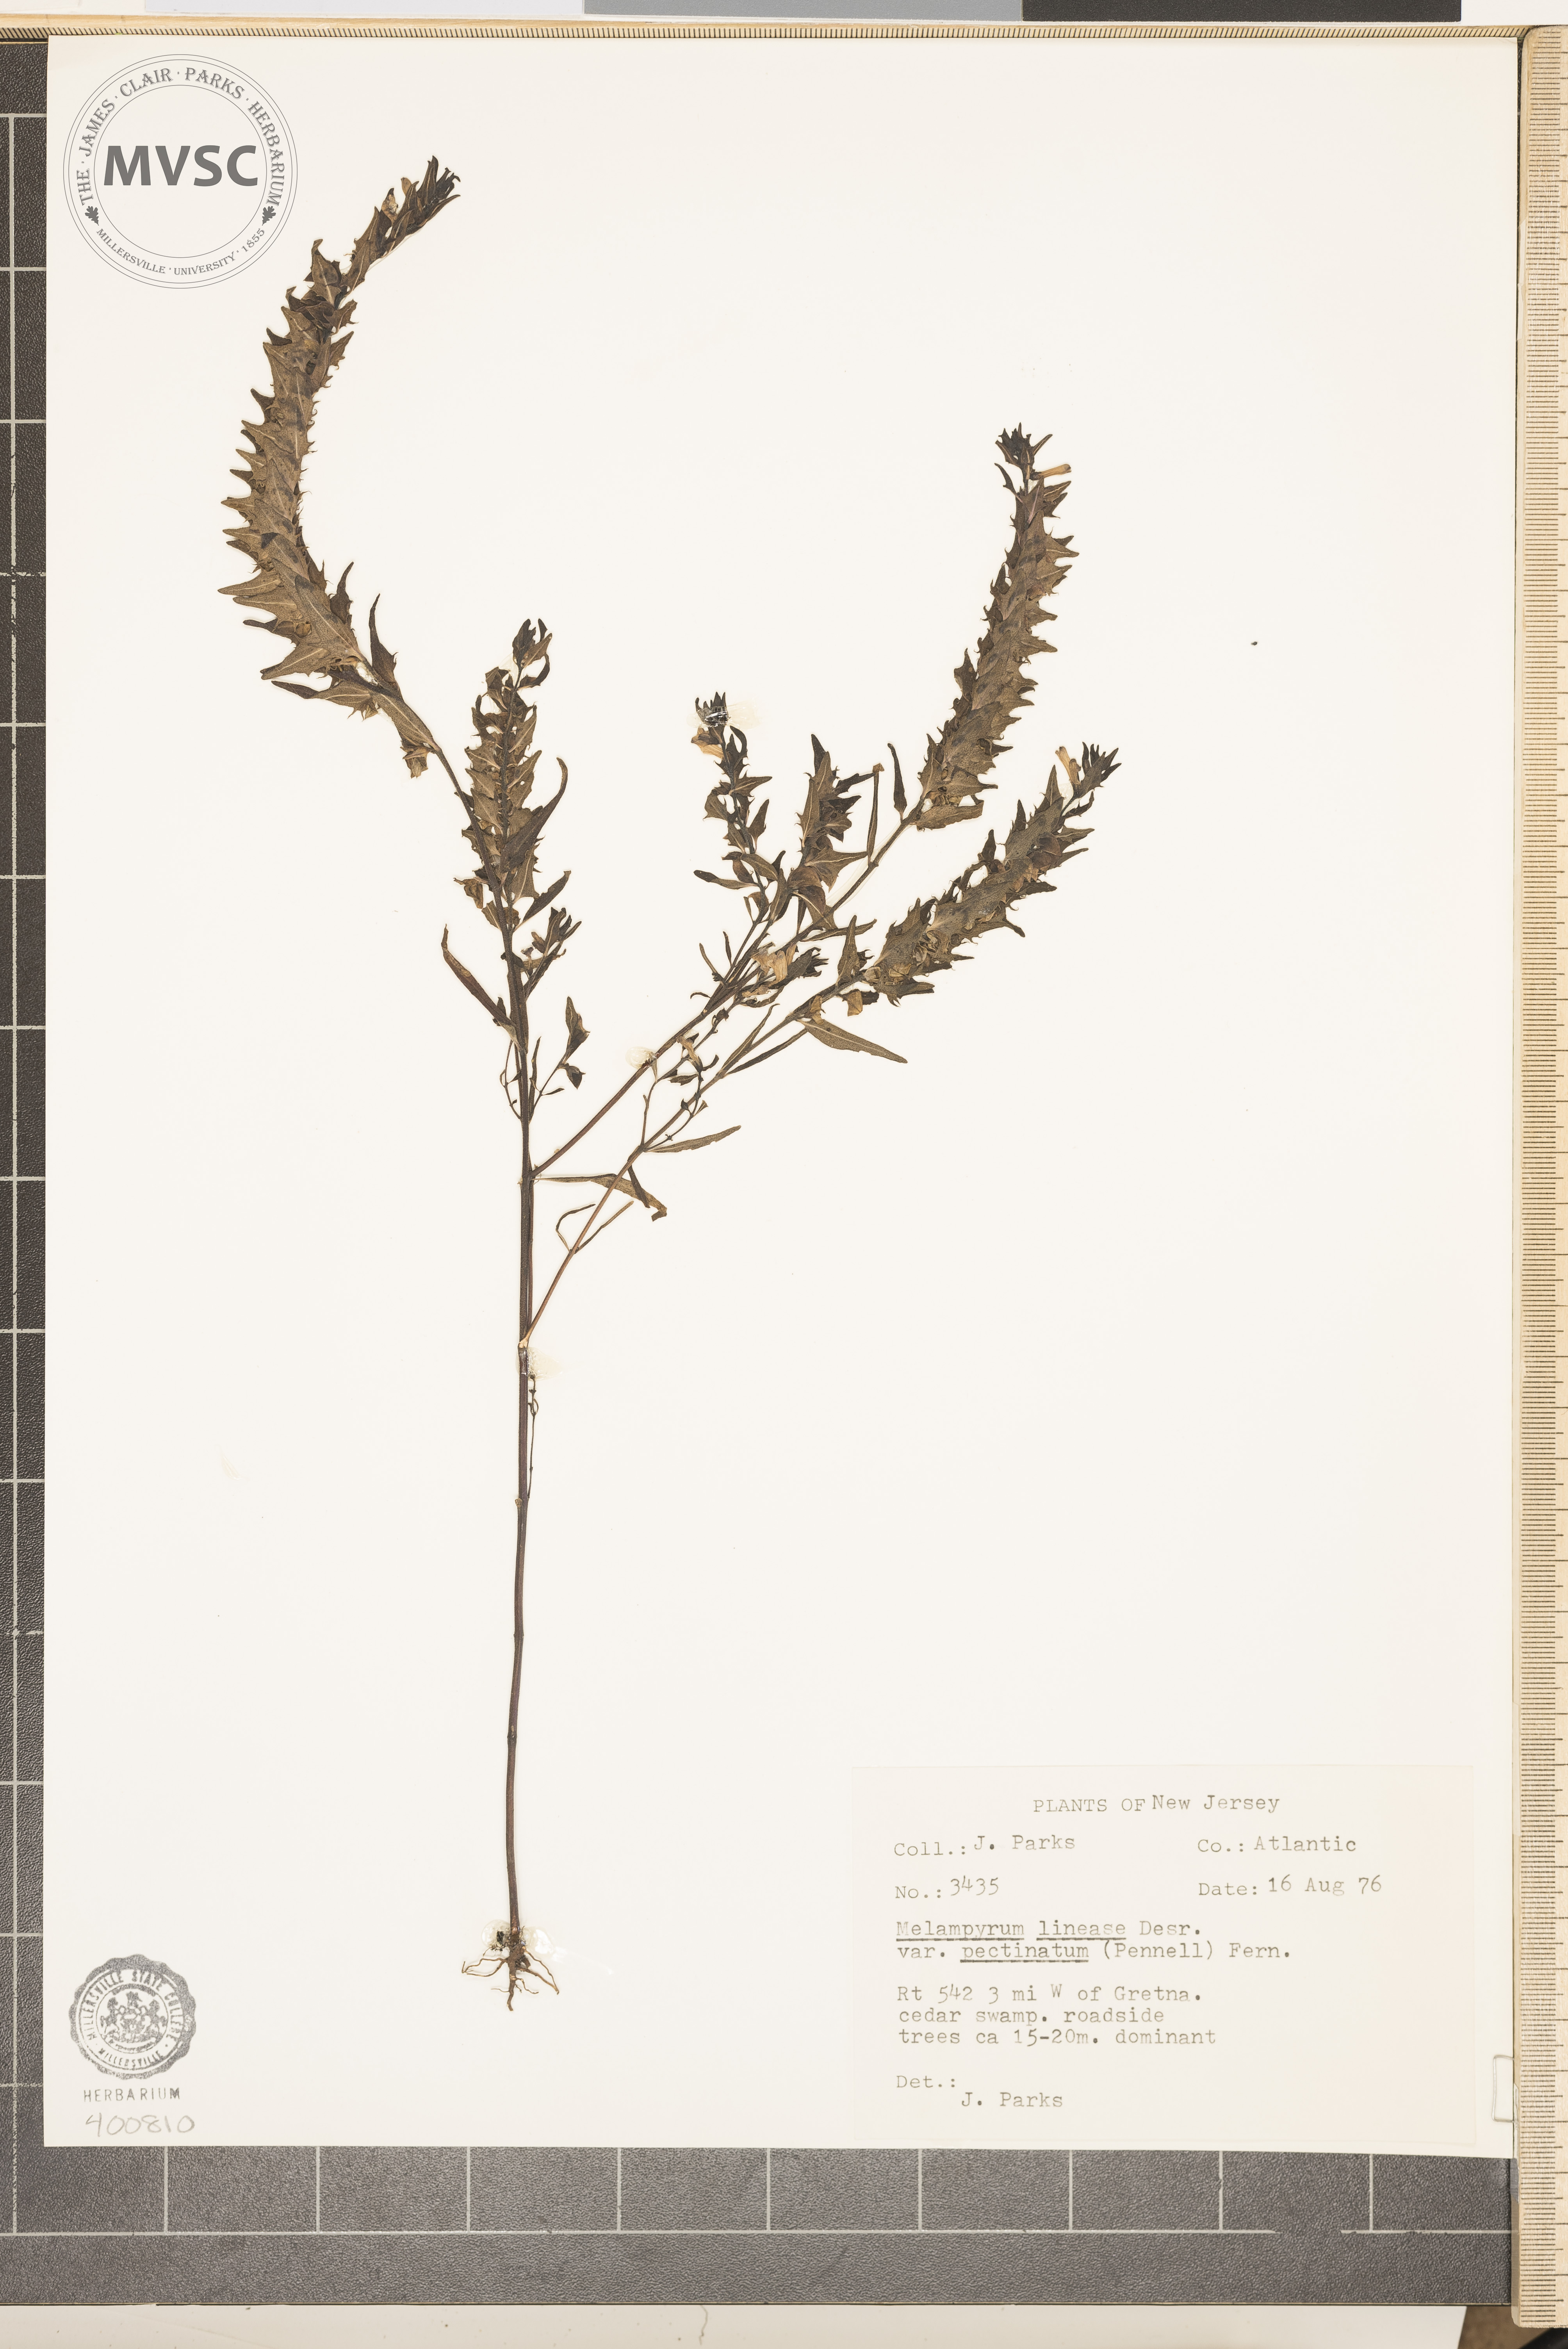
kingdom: Plantae
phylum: Tracheophyta
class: Magnoliopsida
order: Lamiales
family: Orobanchaceae
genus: Melampyrum
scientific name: Melampyrum lineare
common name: American cow-wheat
